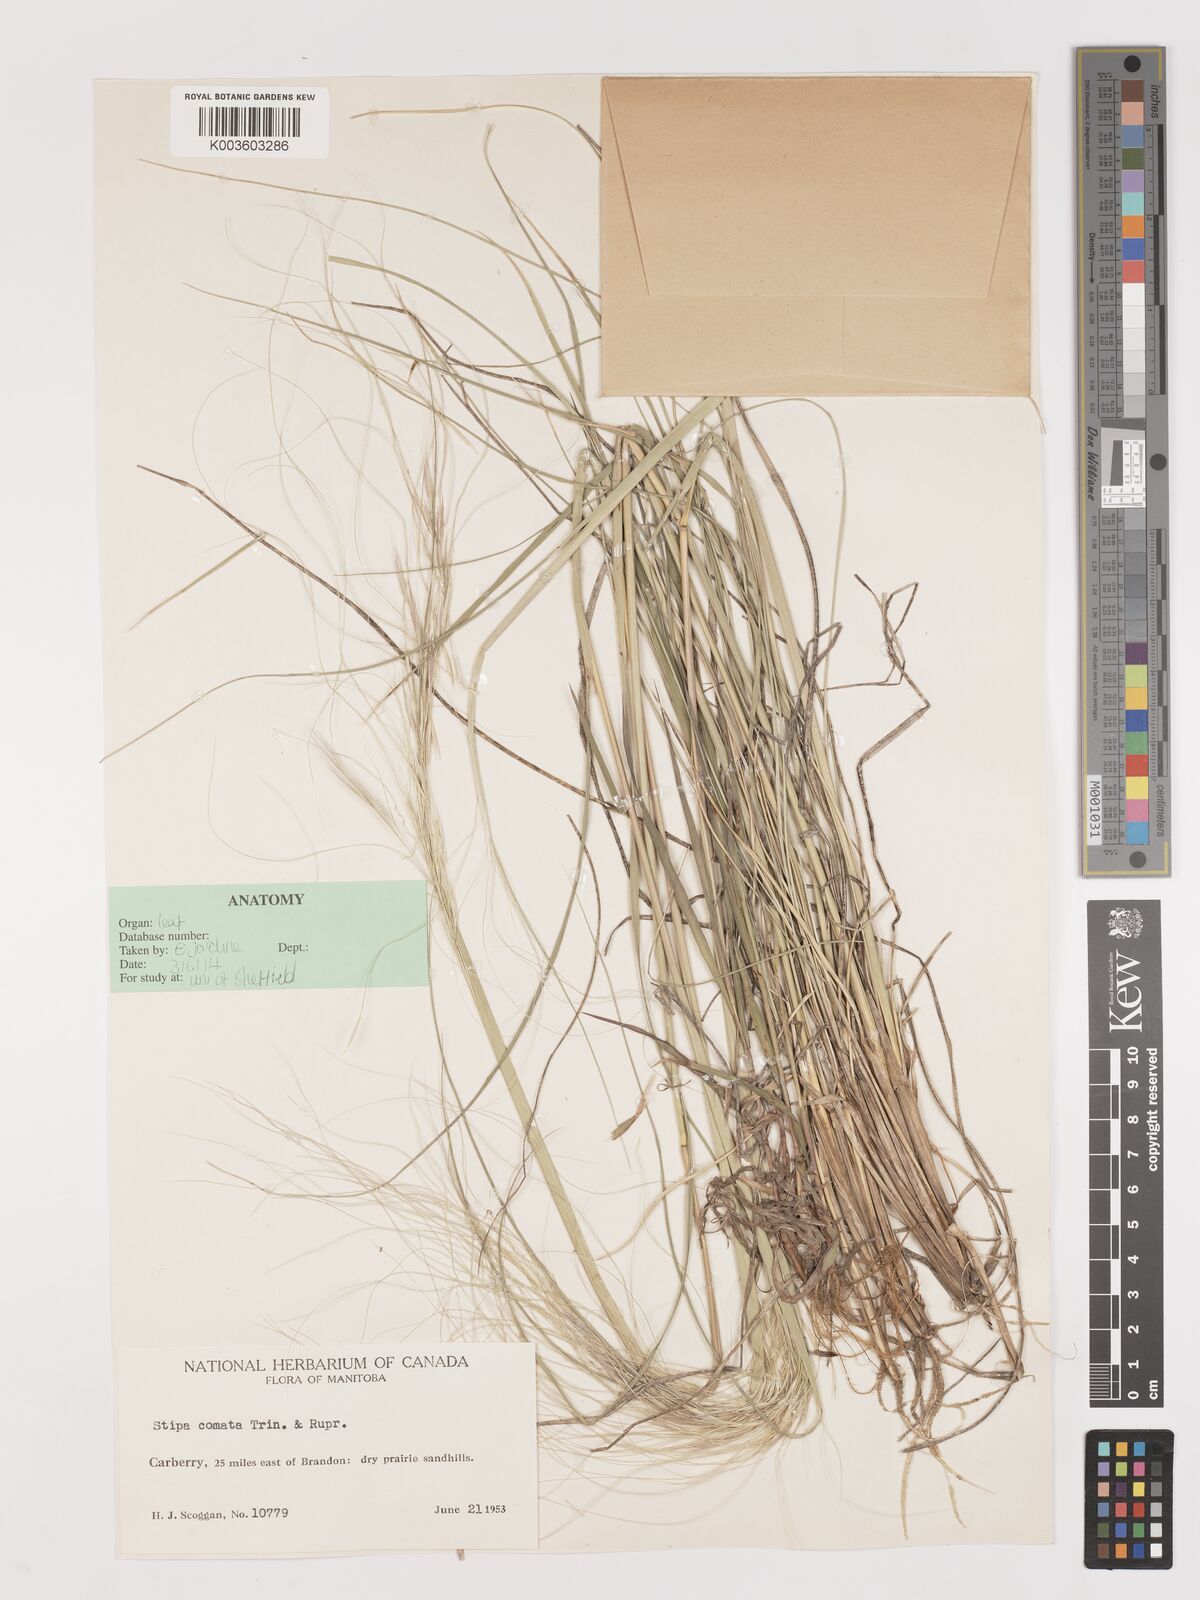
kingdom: Plantae
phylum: Tracheophyta
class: Liliopsida
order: Poales
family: Poaceae
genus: Stipa
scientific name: Stipa
